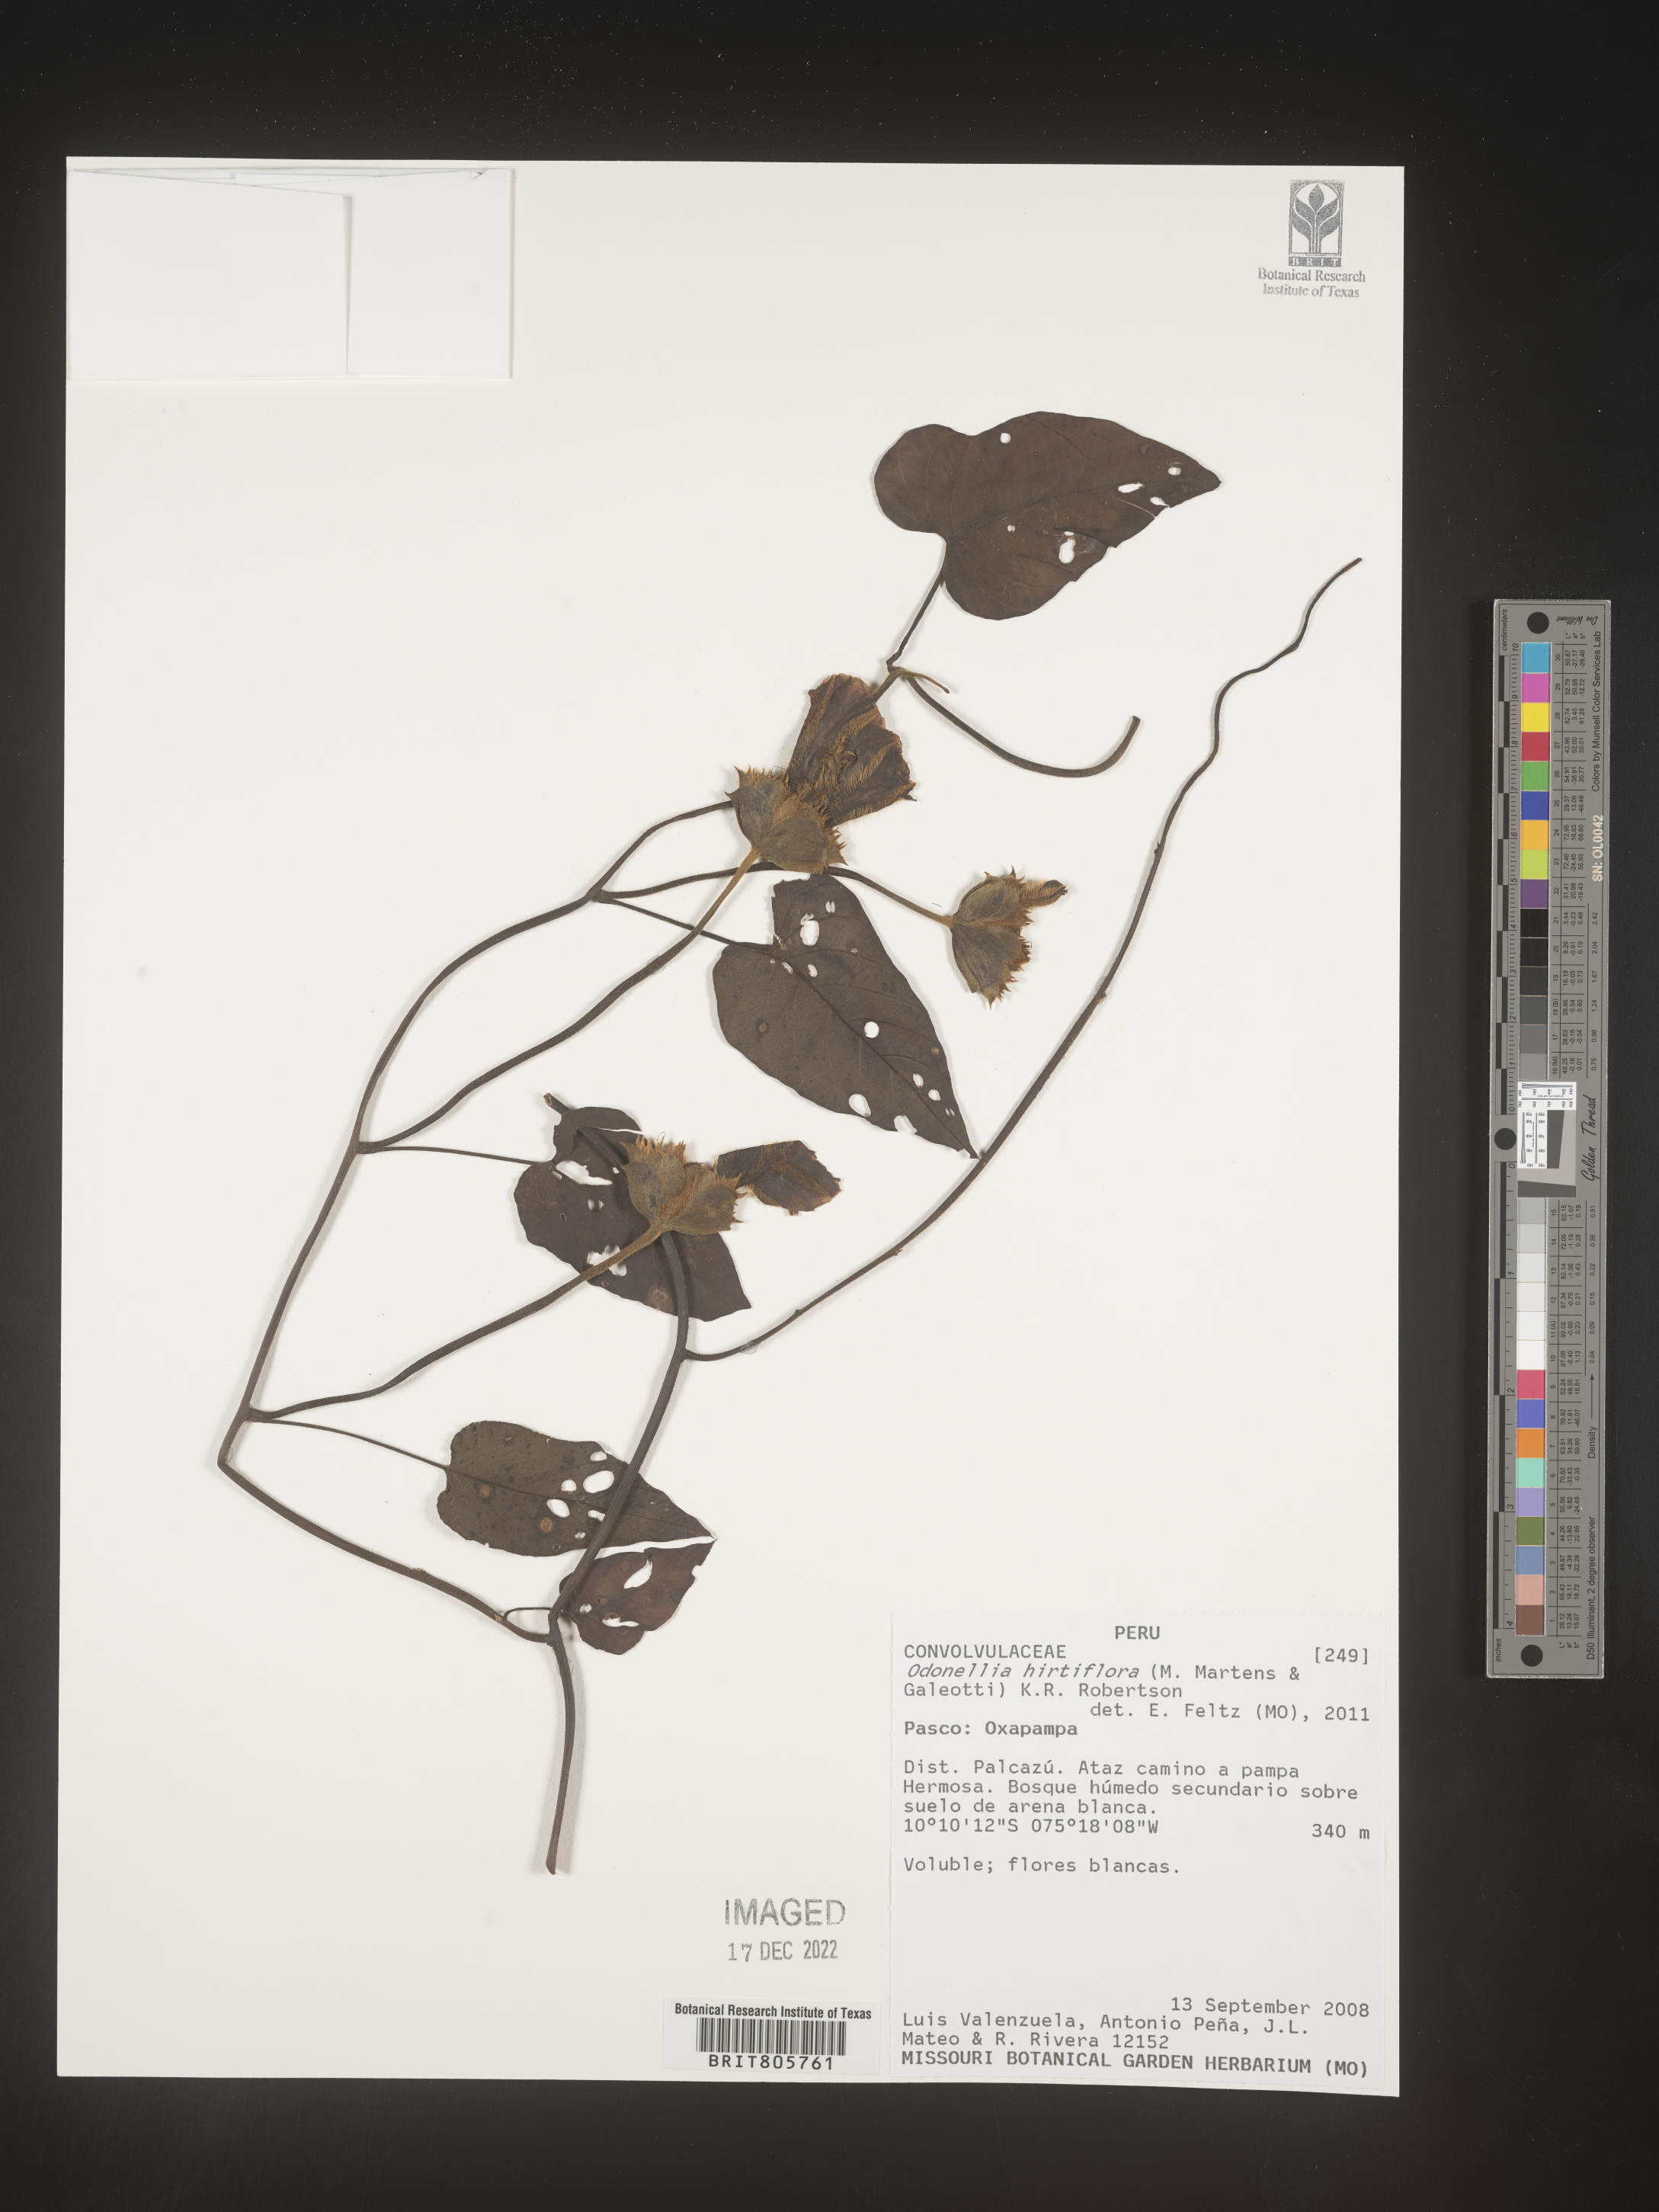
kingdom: Plantae
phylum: Tracheophyta
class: Magnoliopsida
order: Solanales
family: Convolvulaceae
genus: Odonellia
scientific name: Odonellia
